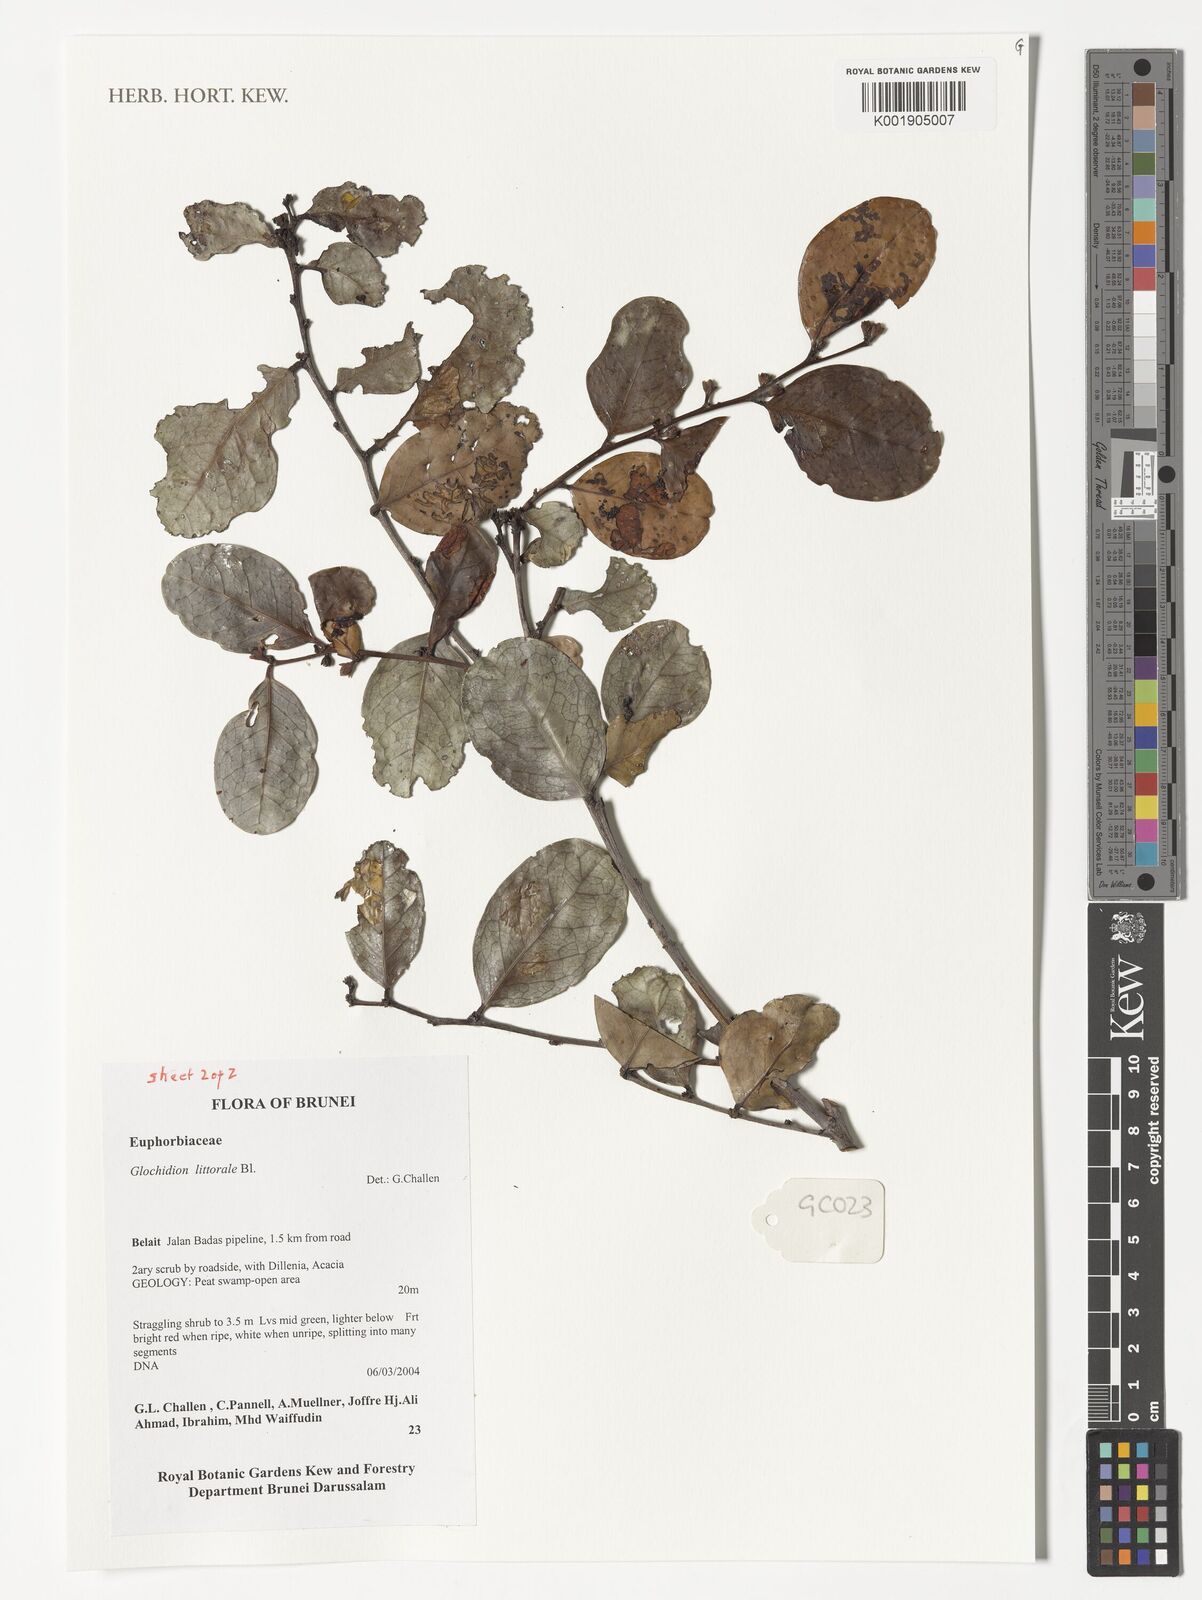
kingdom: Plantae
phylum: Tracheophyta
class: Magnoliopsida
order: Malpighiales
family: Phyllanthaceae
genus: Glochidion
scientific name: Glochidion littorale
